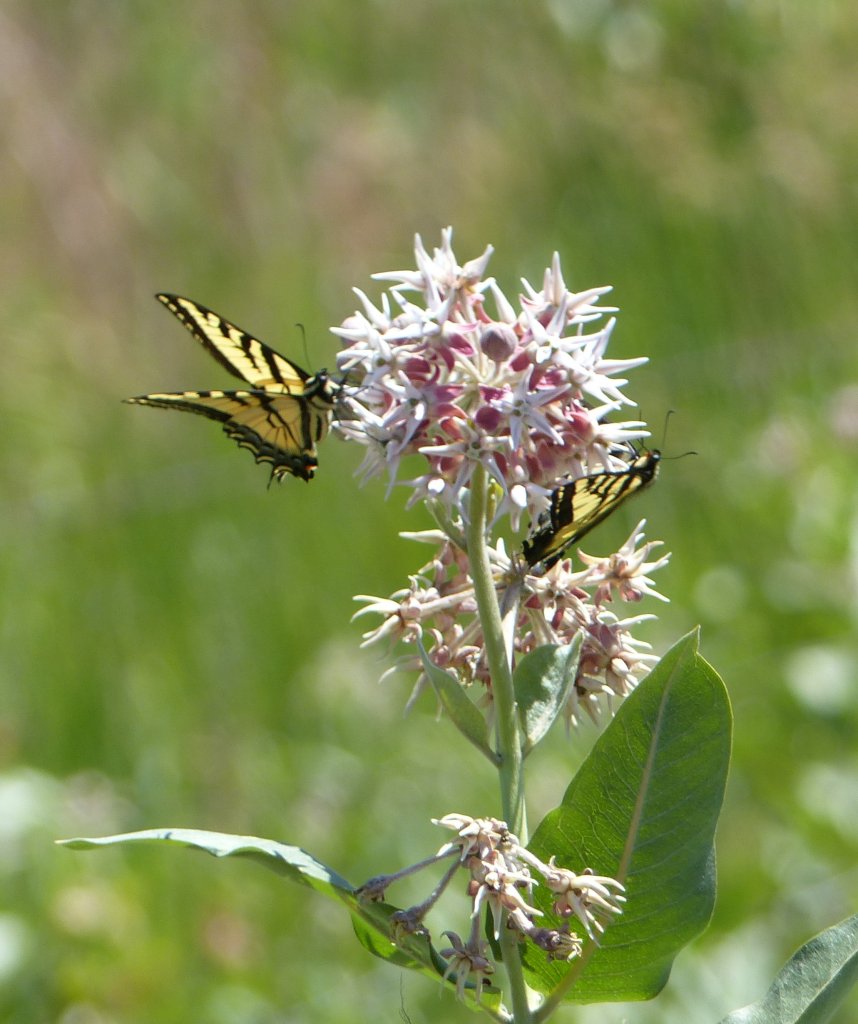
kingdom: Animalia
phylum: Arthropoda
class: Insecta
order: Lepidoptera
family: Papilionidae
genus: Pterourus
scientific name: Pterourus rutulus
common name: Western Tiger Swallowtail
